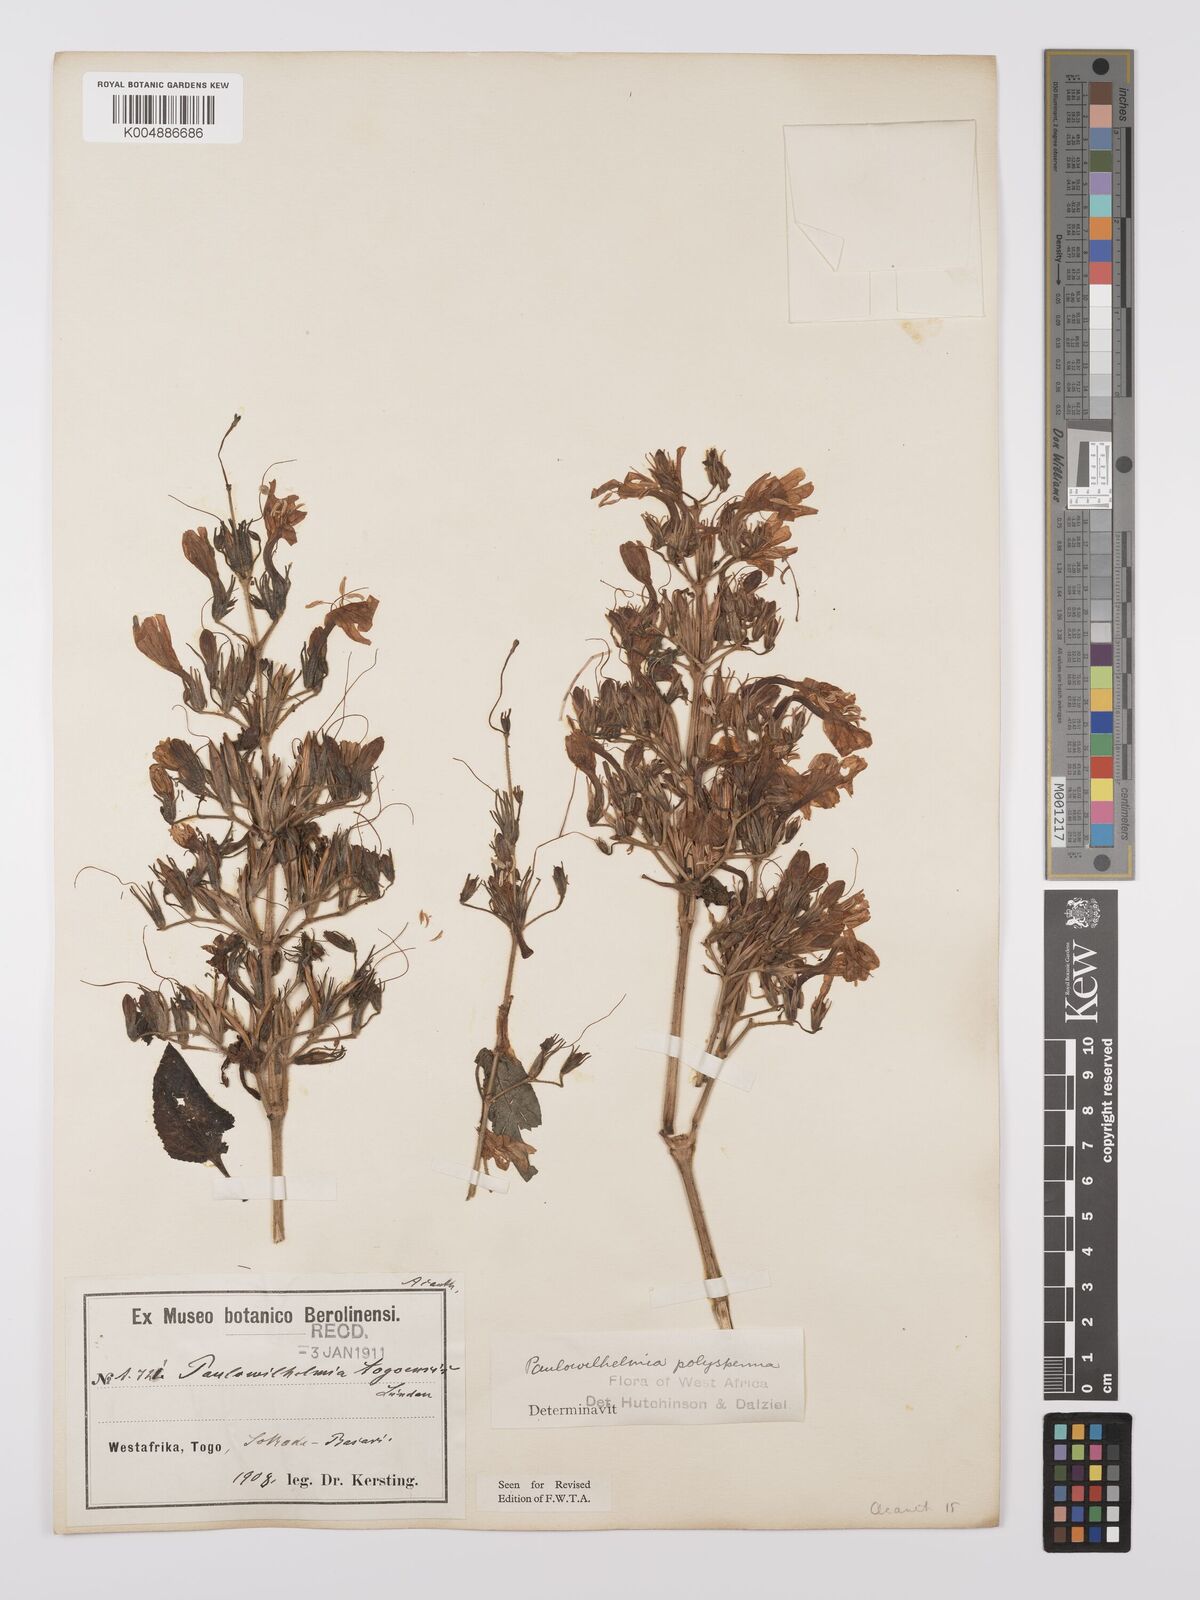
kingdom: Plantae
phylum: Tracheophyta
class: Magnoliopsida
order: Lamiales
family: Acanthaceae
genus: Eremomastax
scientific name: Eremomastax speciosa
